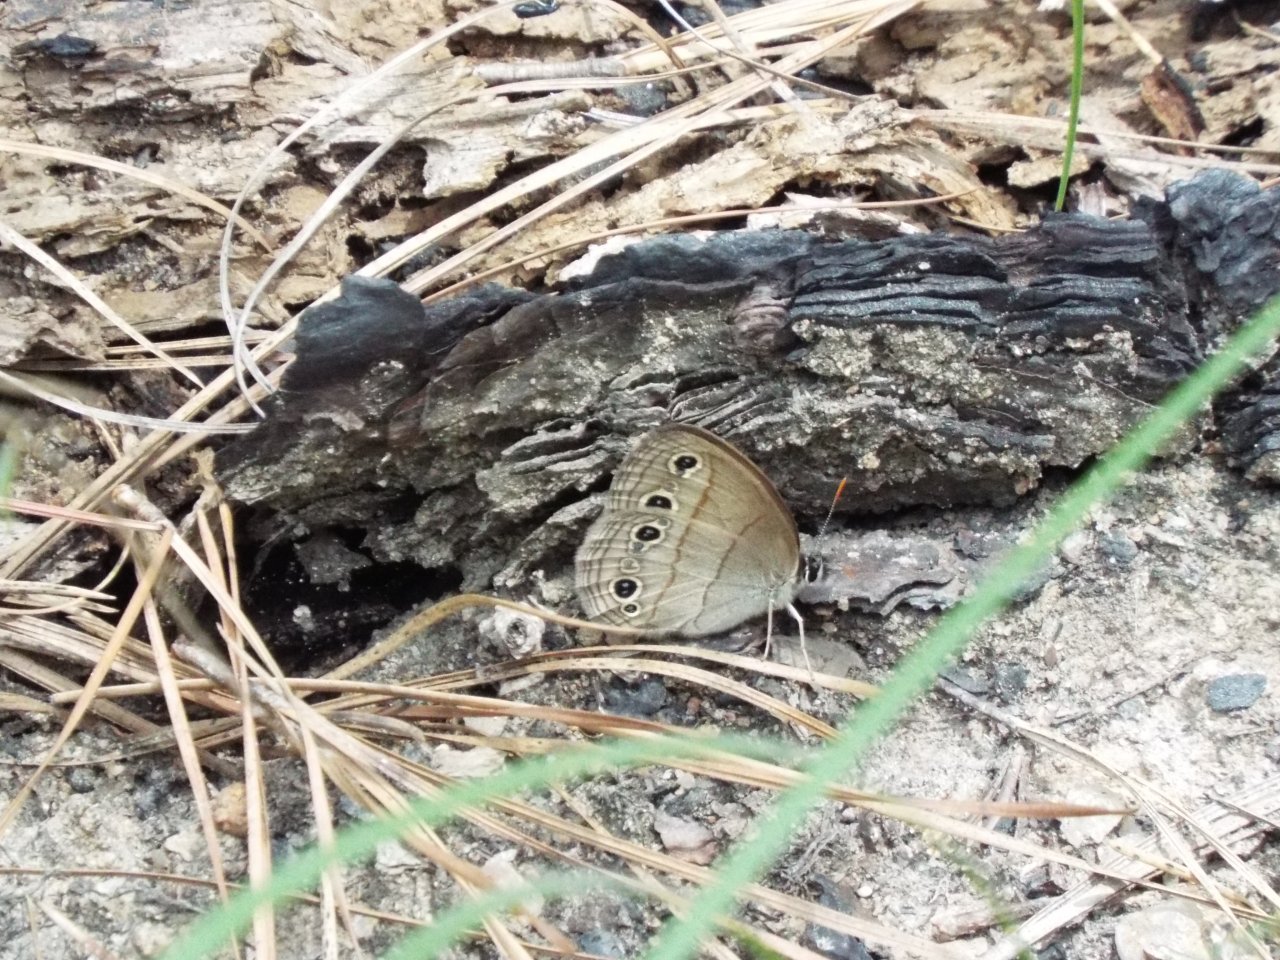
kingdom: Animalia
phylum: Arthropoda
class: Insecta
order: Lepidoptera
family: Nymphalidae
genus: Euptychia
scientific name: Euptychia cymela
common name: Little Wood Satyr
